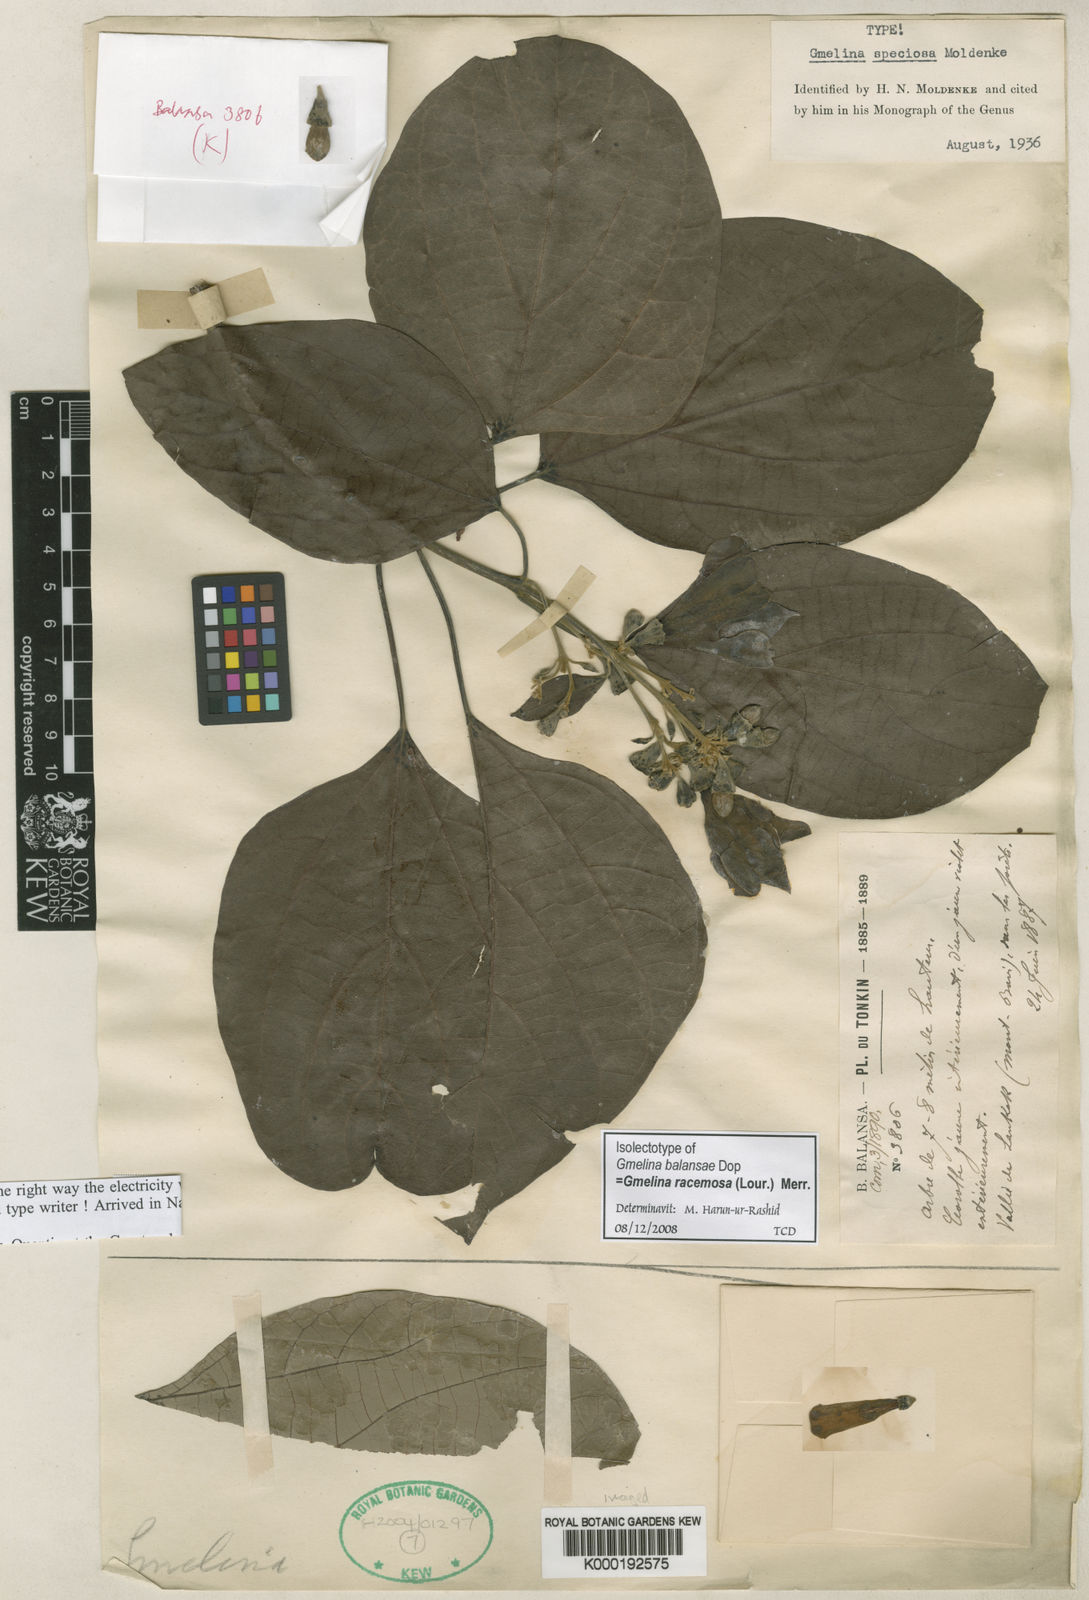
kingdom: Plantae
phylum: Tracheophyta
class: Magnoliopsida
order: Lamiales
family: Lamiaceae
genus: Gmelina
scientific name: Gmelina chinensis
